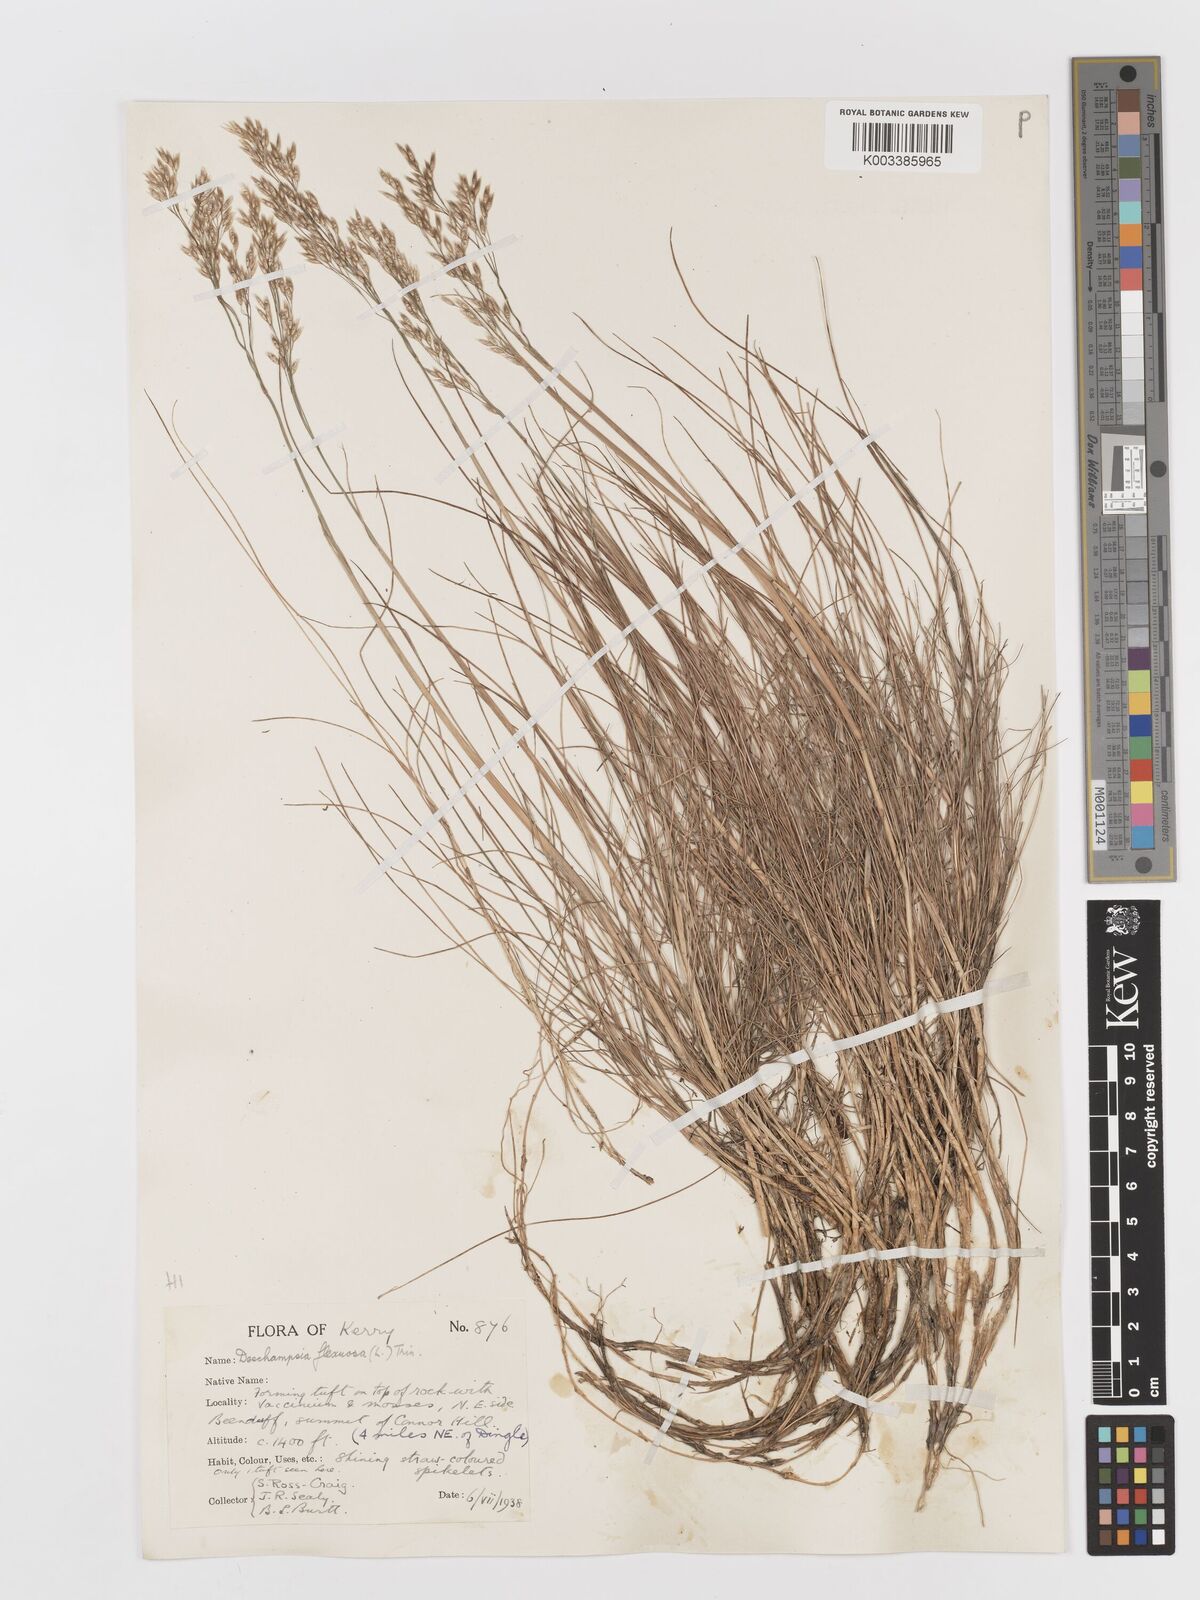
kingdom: Plantae
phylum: Tracheophyta
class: Liliopsida
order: Poales
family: Poaceae
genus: Avenella
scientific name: Avenella flexuosa
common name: Wavy hairgrass
